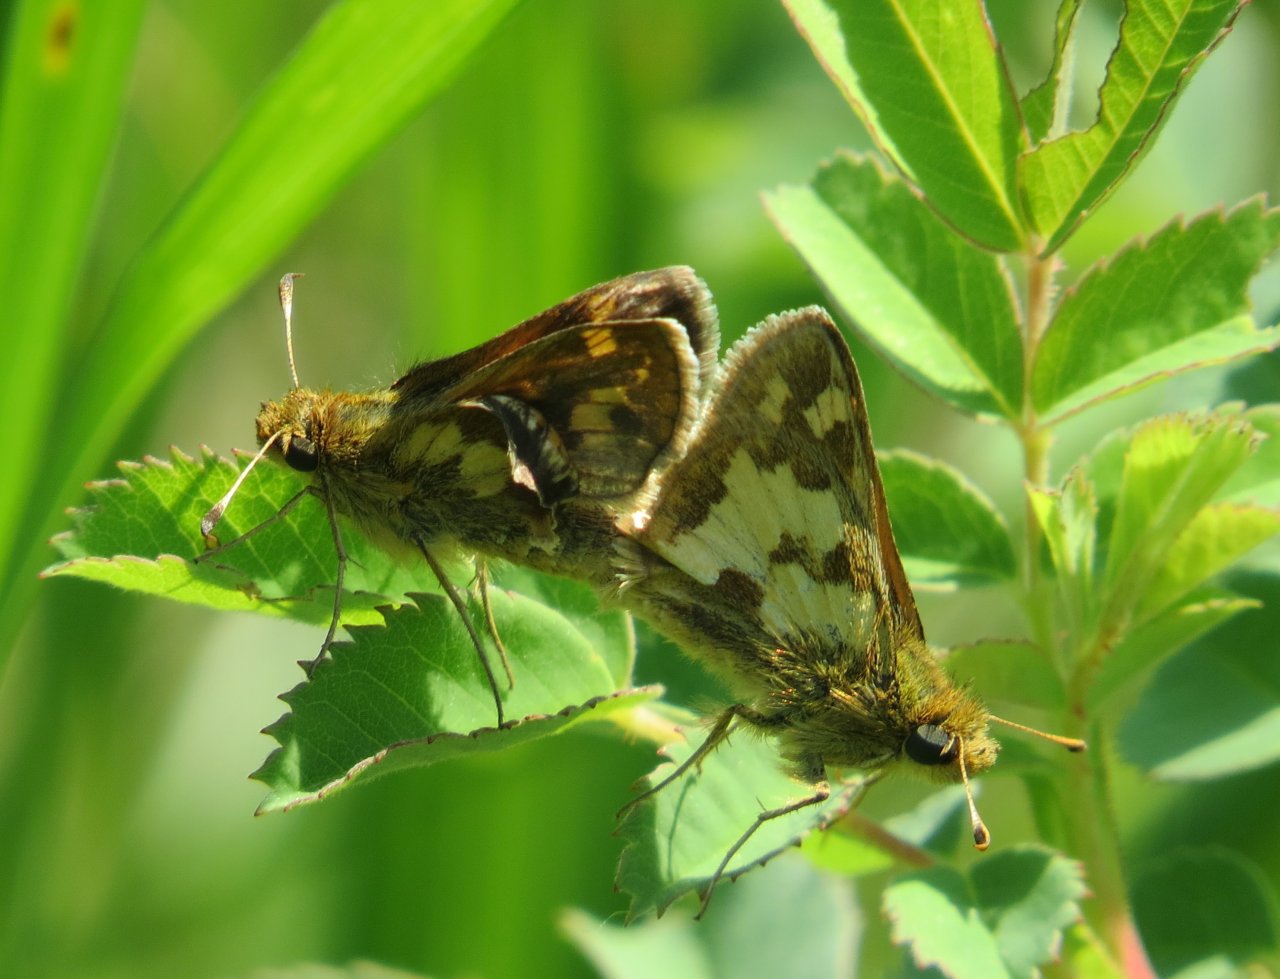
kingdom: Animalia
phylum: Arthropoda
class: Insecta
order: Lepidoptera
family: Hesperiidae
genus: Polites
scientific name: Polites coras
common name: Peck's Skipper
